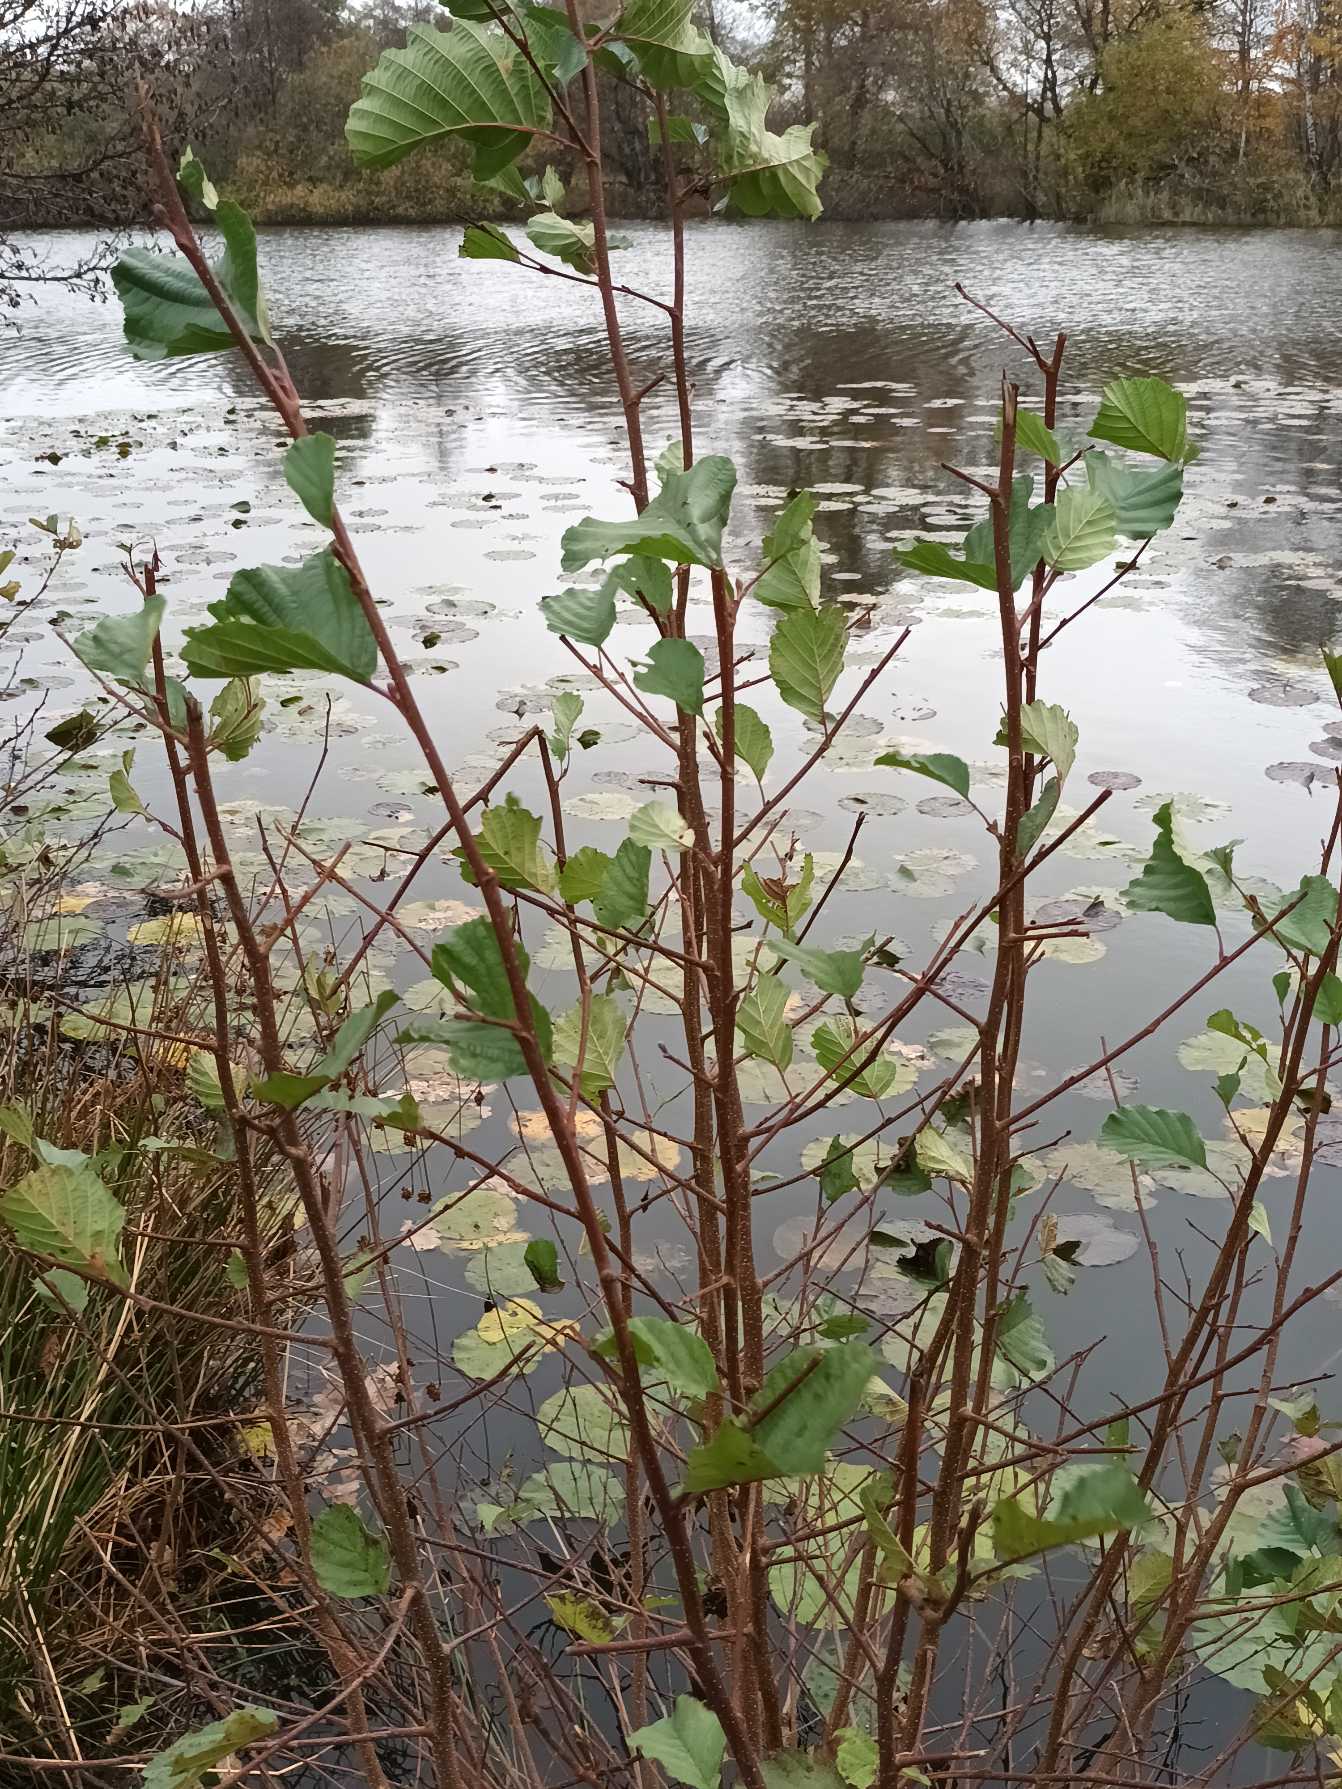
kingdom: Plantae
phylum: Tracheophyta
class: Magnoliopsida
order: Fagales
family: Betulaceae
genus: Alnus
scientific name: Alnus glutinosa
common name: Rød-el
